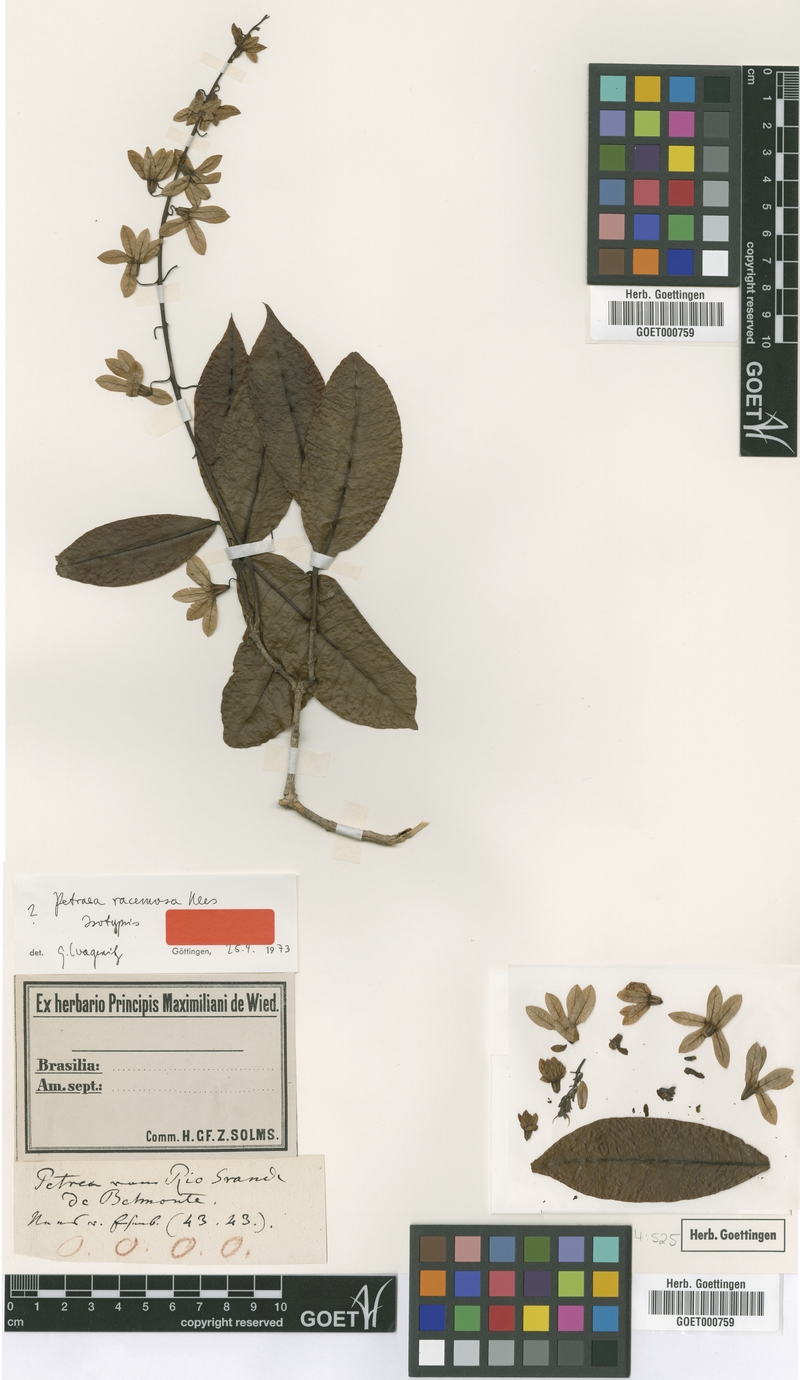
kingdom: Plantae
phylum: Tracheophyta
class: Magnoliopsida
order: Lamiales
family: Verbenaceae
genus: Petraea
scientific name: Petraea racemosa
